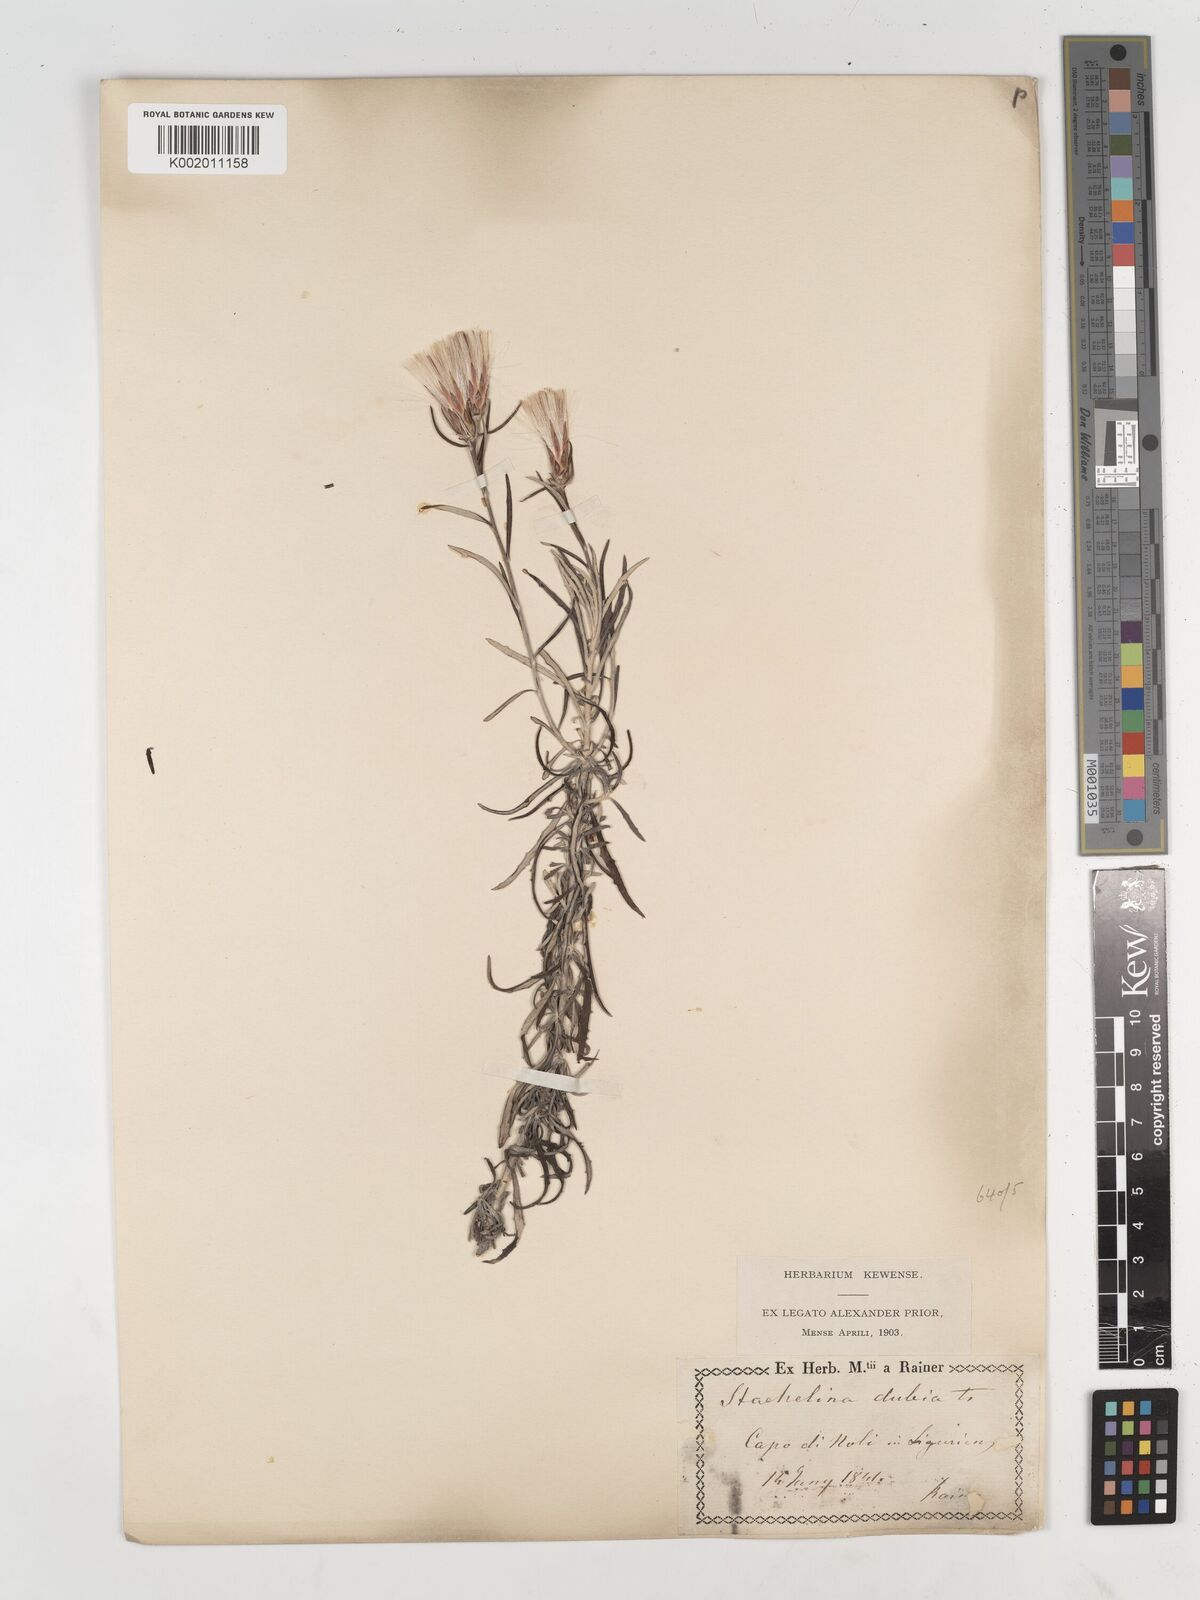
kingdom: Plantae
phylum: Tracheophyta
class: Magnoliopsida
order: Asterales
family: Asteraceae
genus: Staehelina
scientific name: Staehelina dubia
